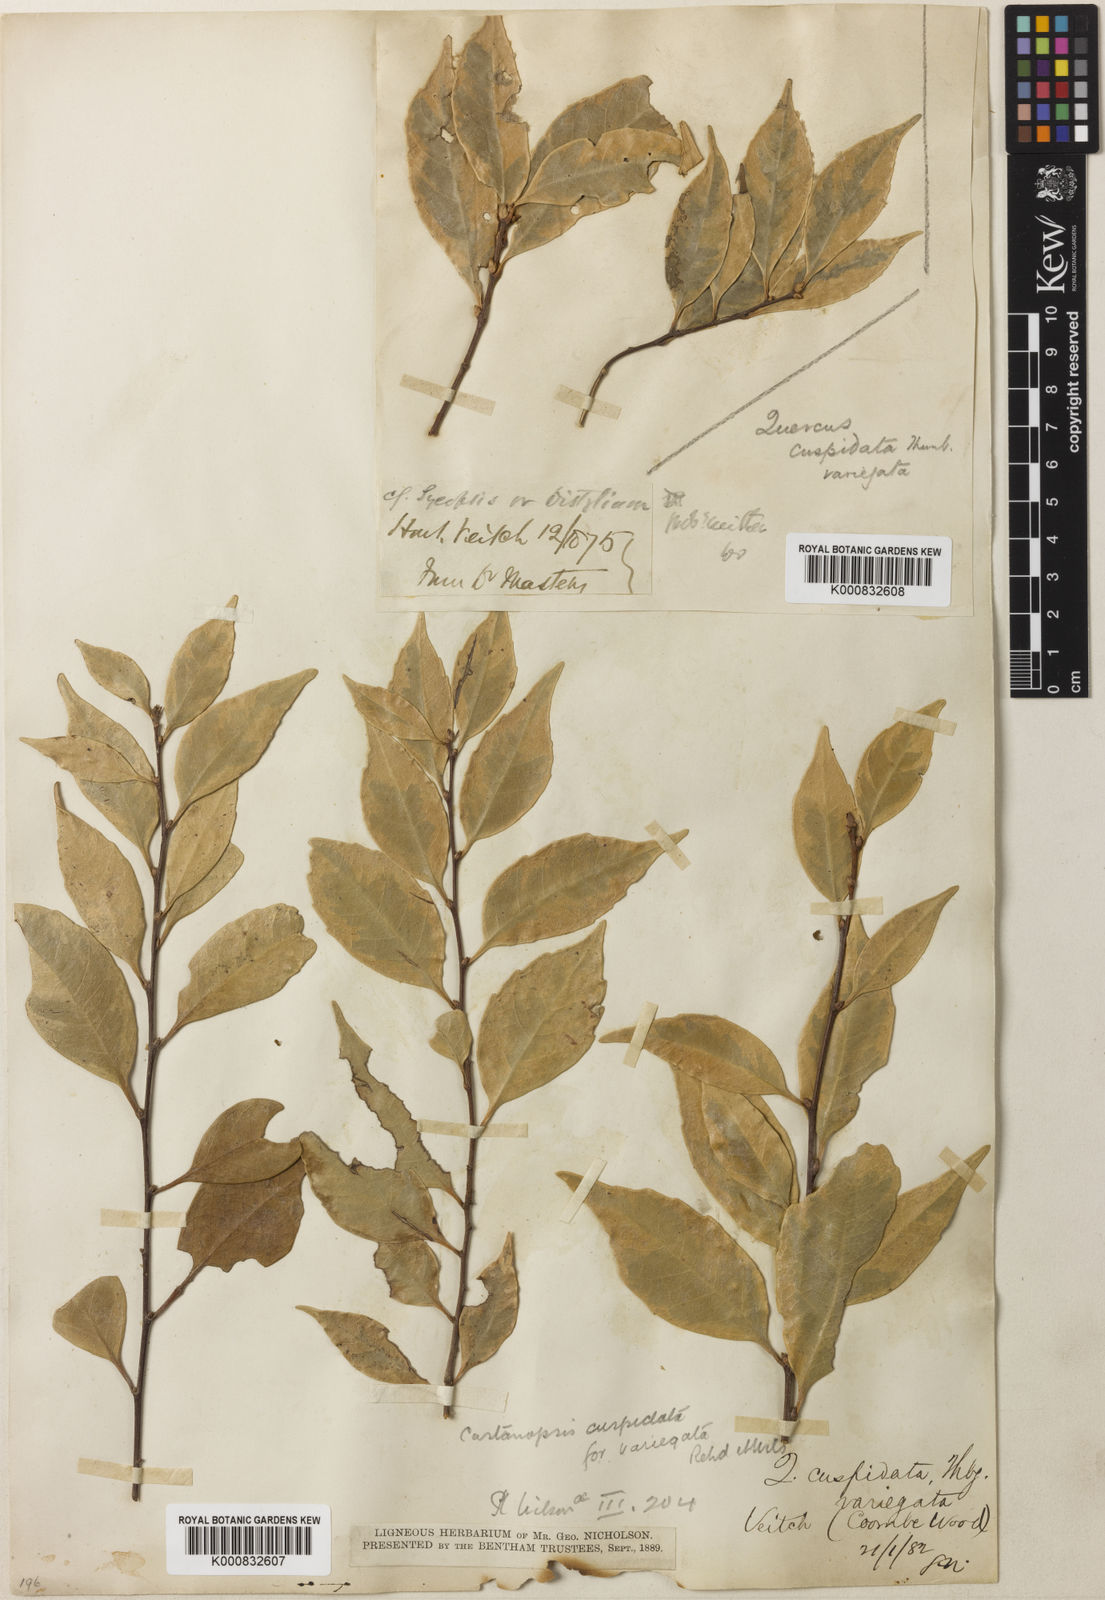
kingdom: Plantae
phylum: Tracheophyta
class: Magnoliopsida
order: Fagales
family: Fagaceae
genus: Castanopsis
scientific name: Castanopsis cuspidata
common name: Japanese chinquapin
